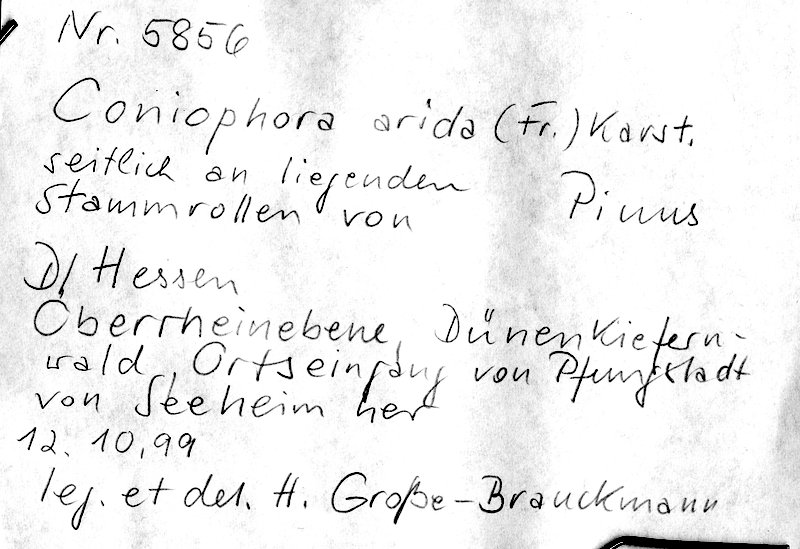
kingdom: Plantae
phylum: Tracheophyta
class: Pinopsida
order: Pinales
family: Pinaceae
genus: Pinus
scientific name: Pinus
